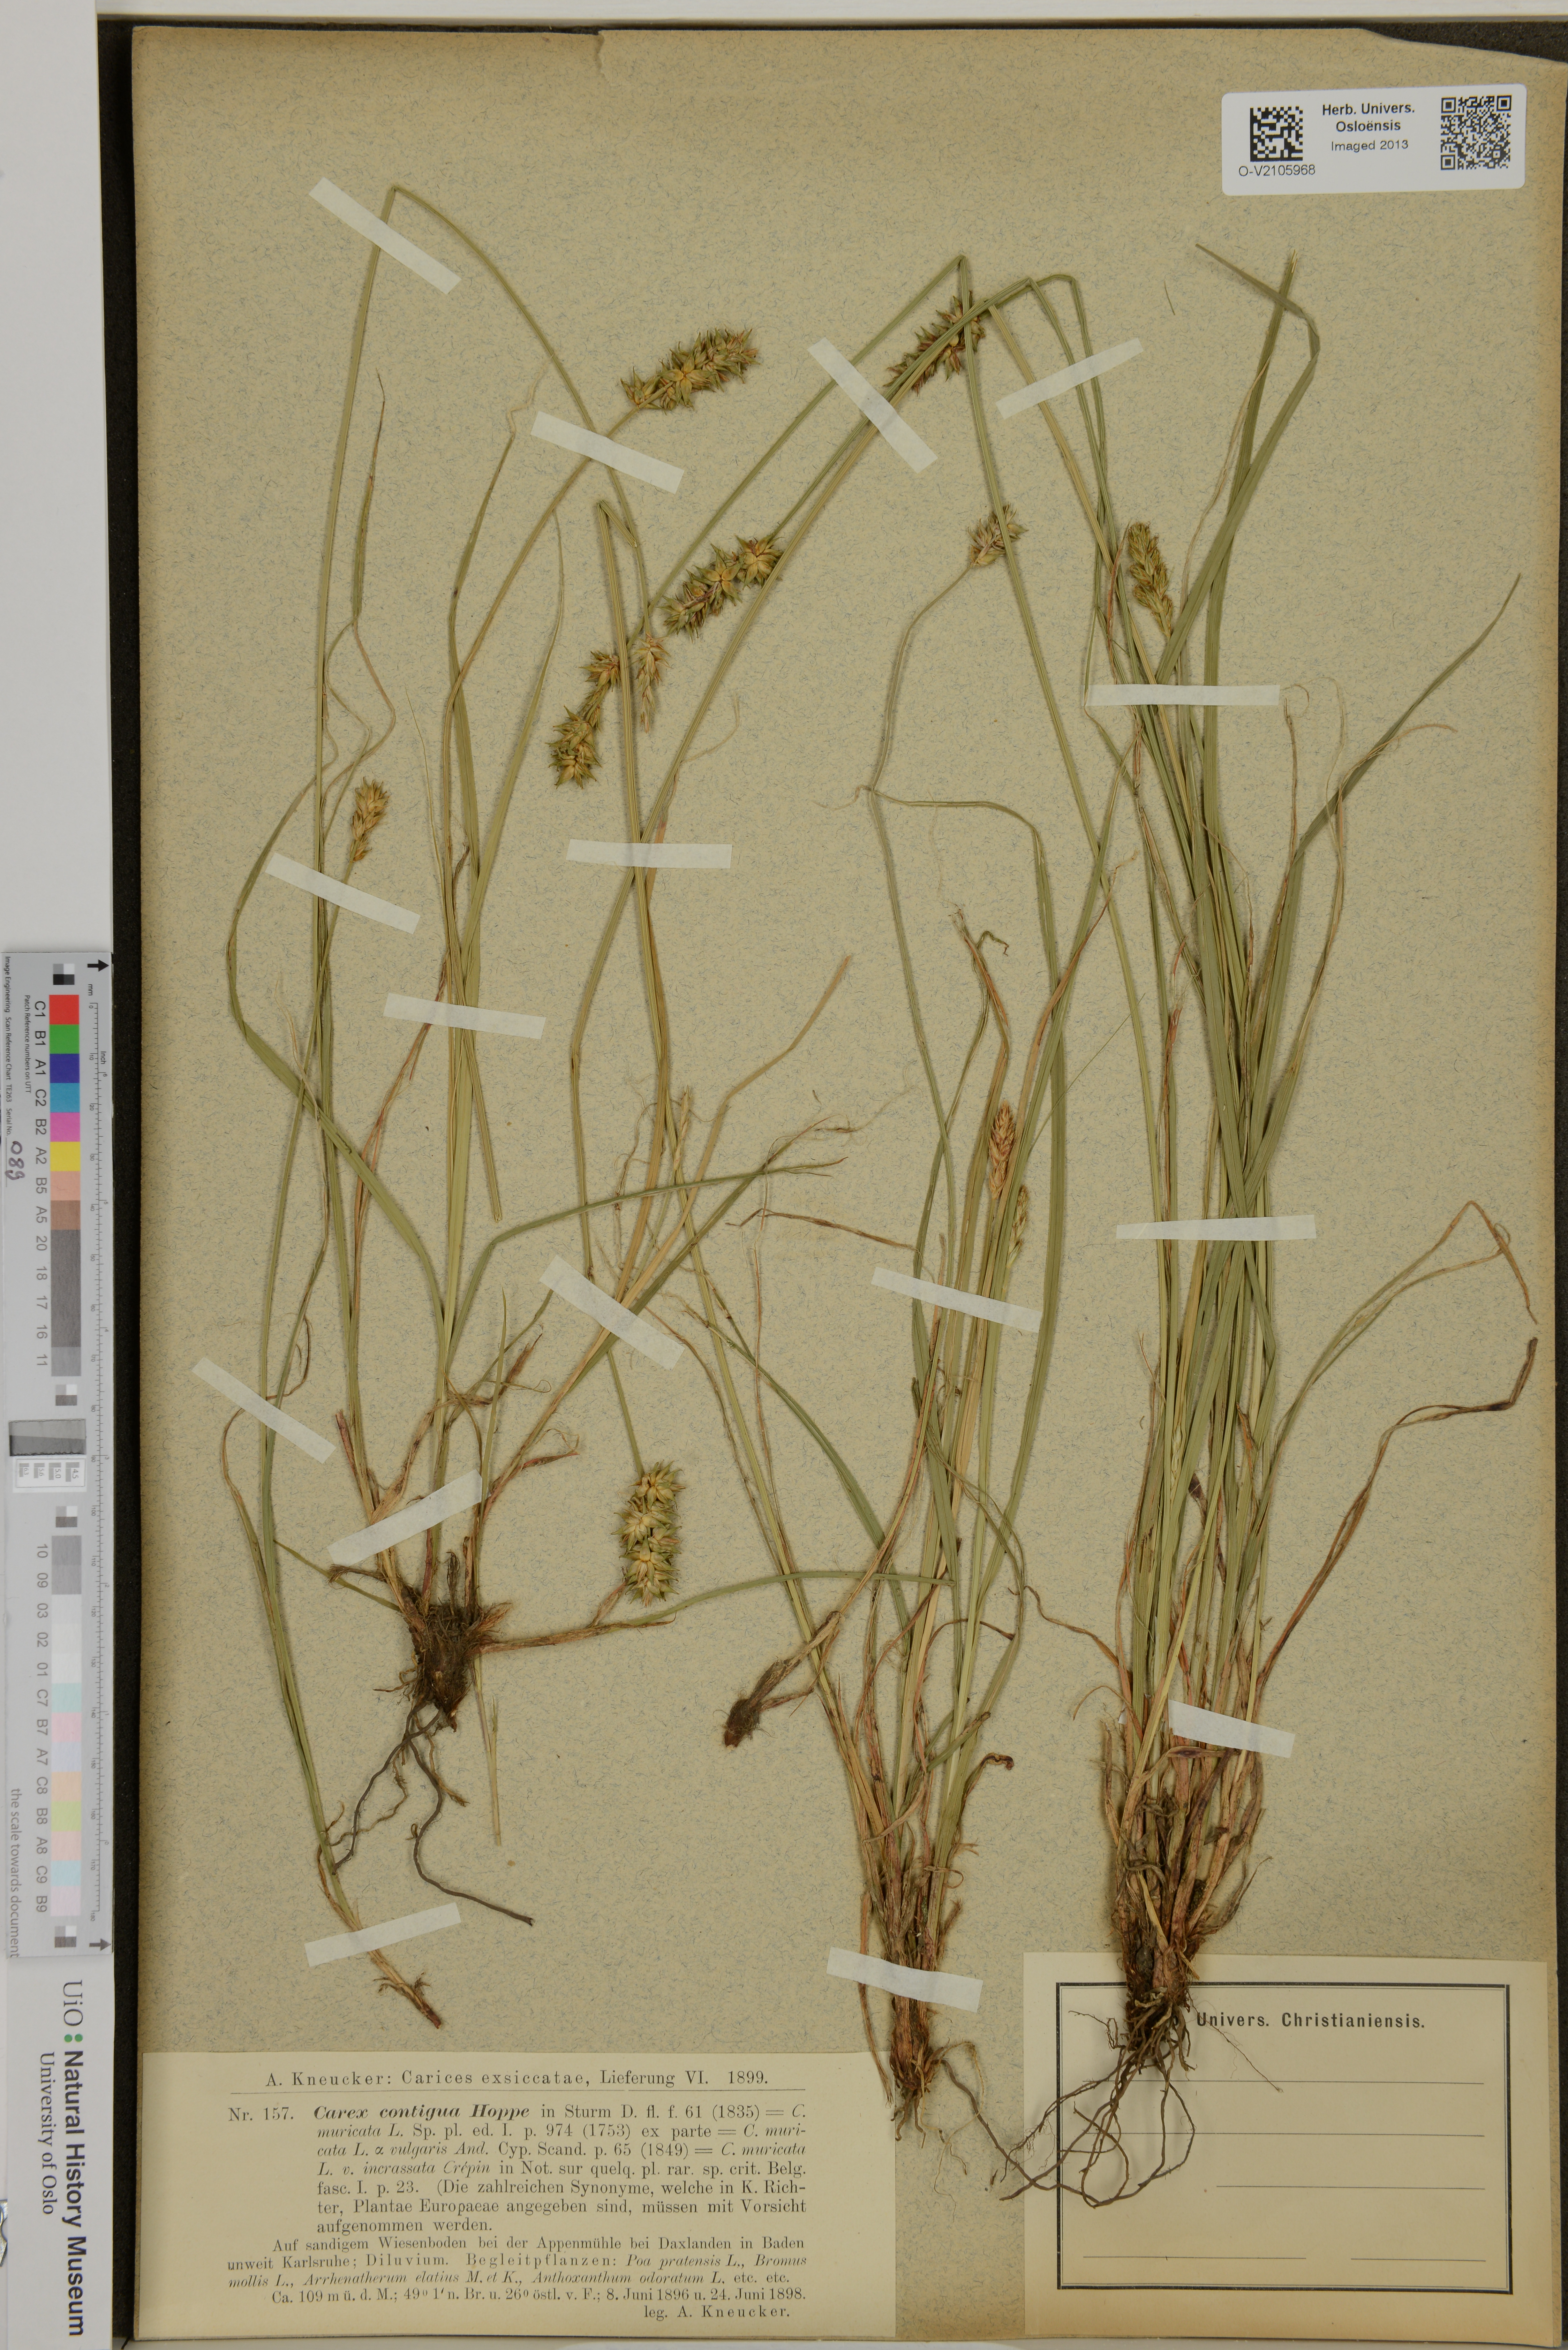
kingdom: Plantae
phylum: Tracheophyta
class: Liliopsida
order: Poales
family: Cyperaceae
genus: Carex
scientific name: Carex spicata
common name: Spiked sedge
